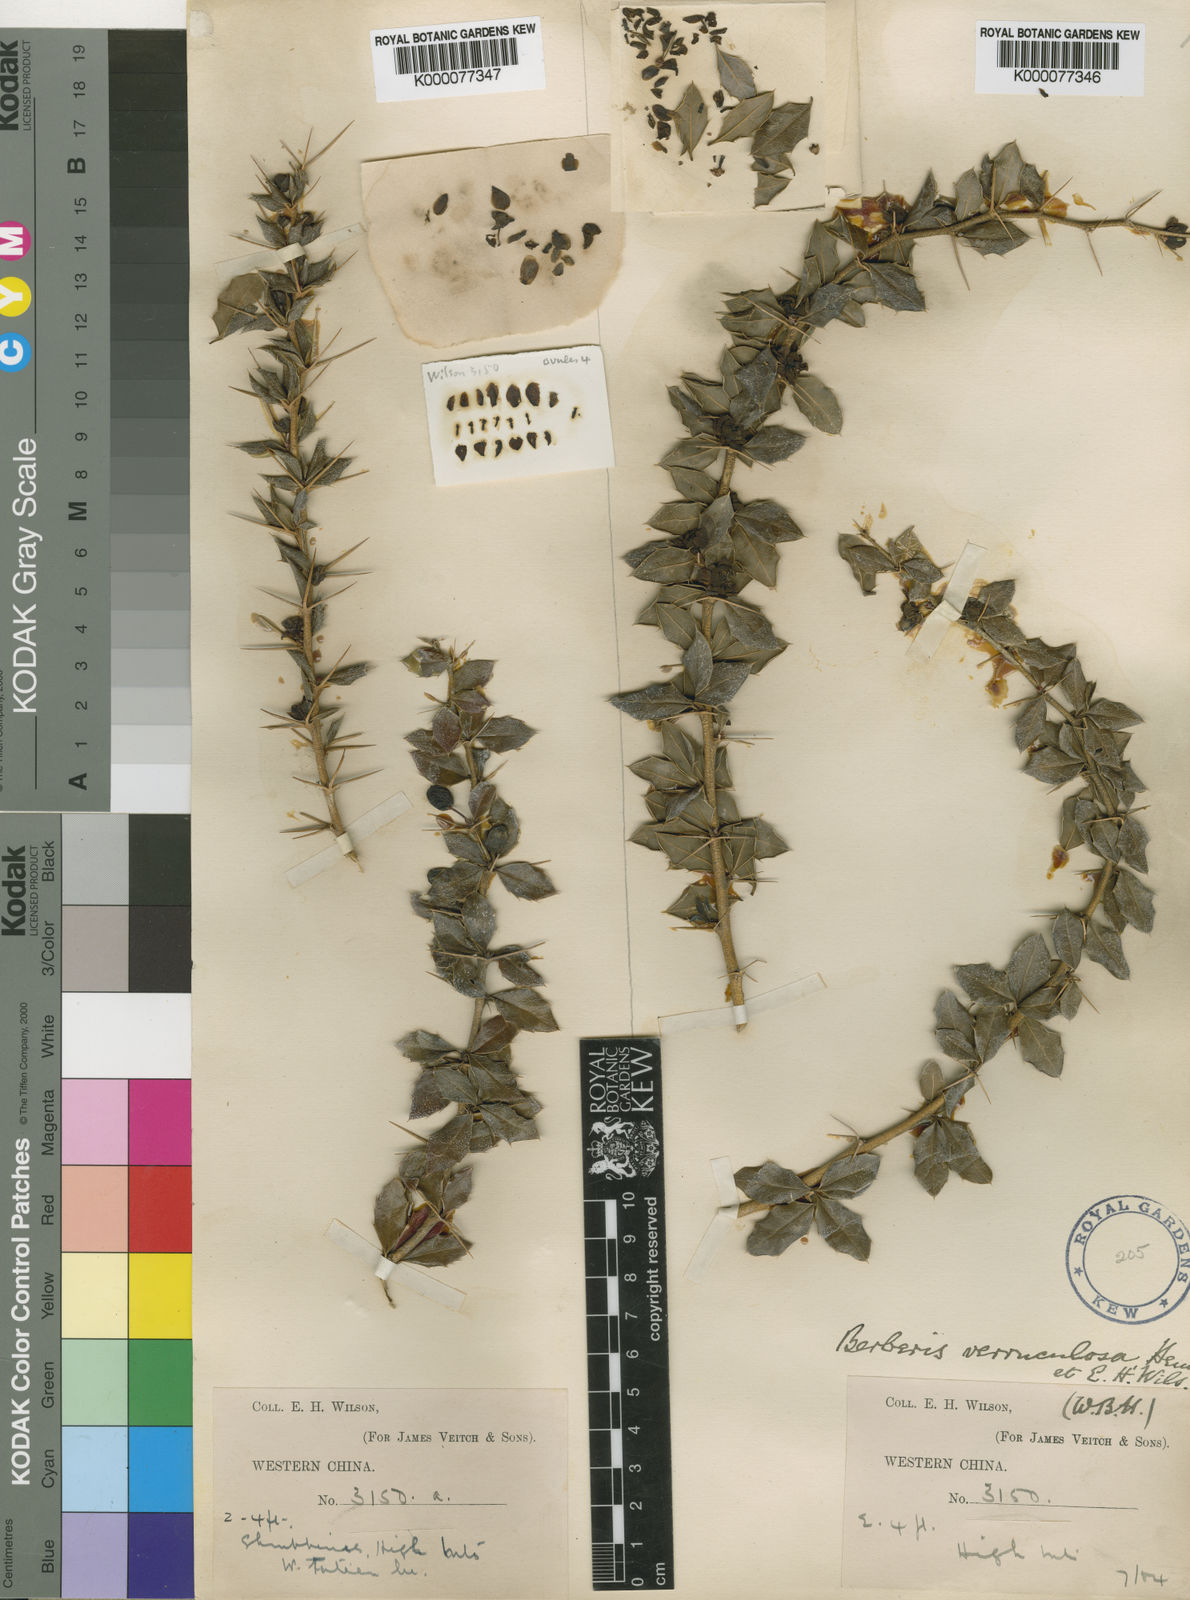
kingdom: Plantae
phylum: Tracheophyta
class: Magnoliopsida
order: Ranunculales
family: Berberidaceae
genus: Berberis
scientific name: Berberis verruculosa
